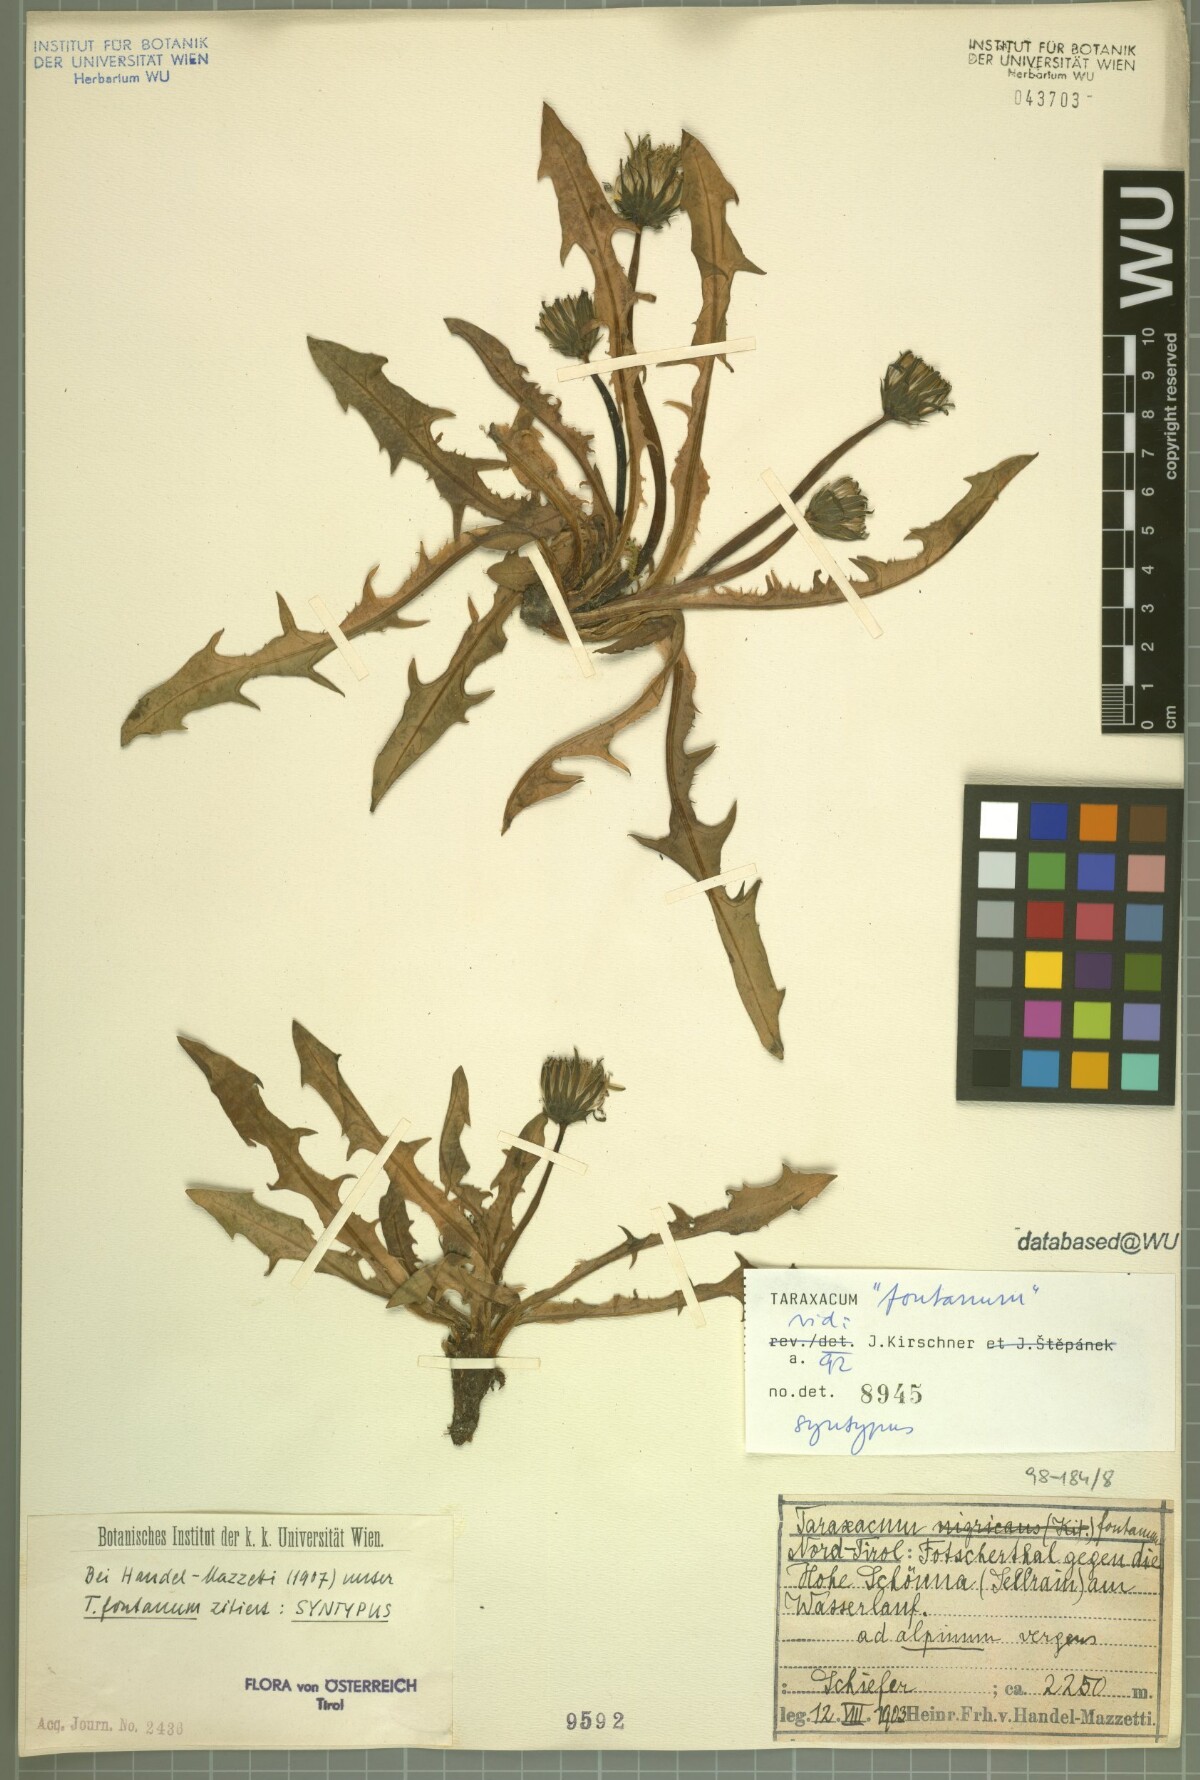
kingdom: Plantae
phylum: Tracheophyta
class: Magnoliopsida
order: Asterales
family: Asteraceae
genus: Taraxacum
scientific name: Taraxacum fontanum
